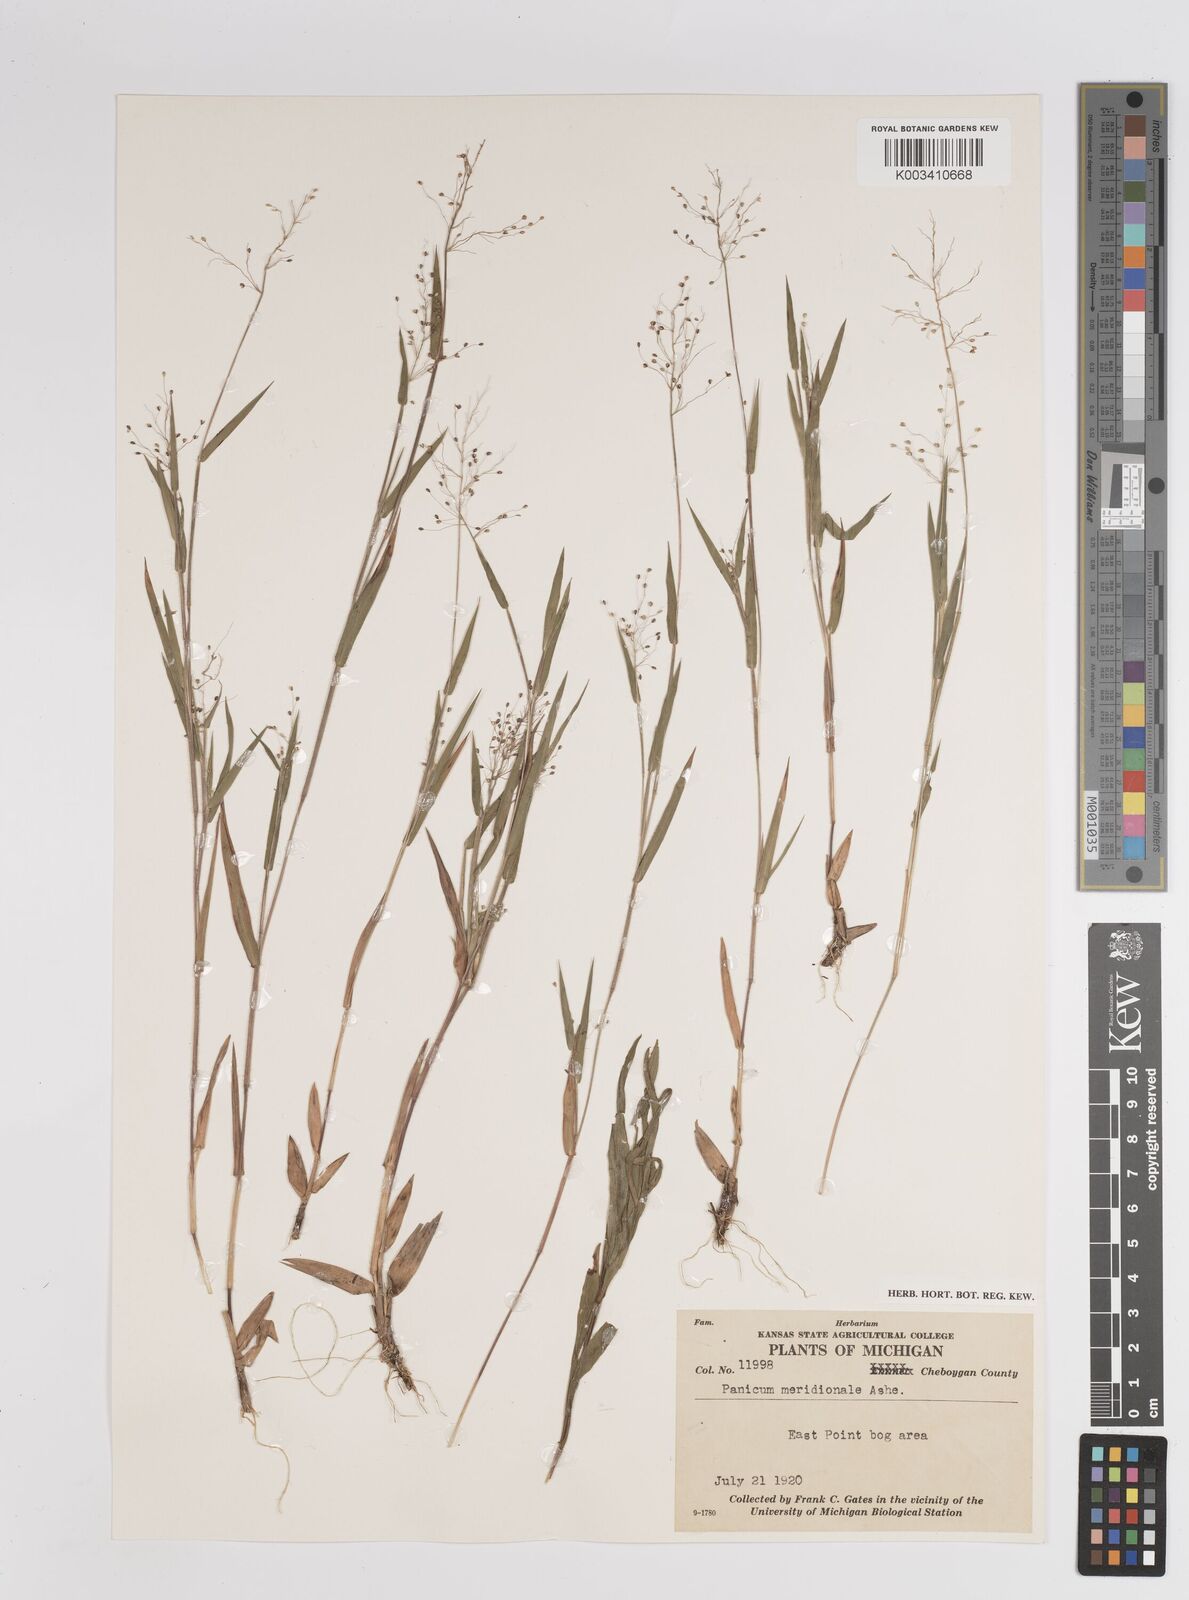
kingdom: Plantae
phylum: Tracheophyta
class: Liliopsida
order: Poales
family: Poaceae
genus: Dichanthelium
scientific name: Dichanthelium meridionale
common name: Mat panicgrass
